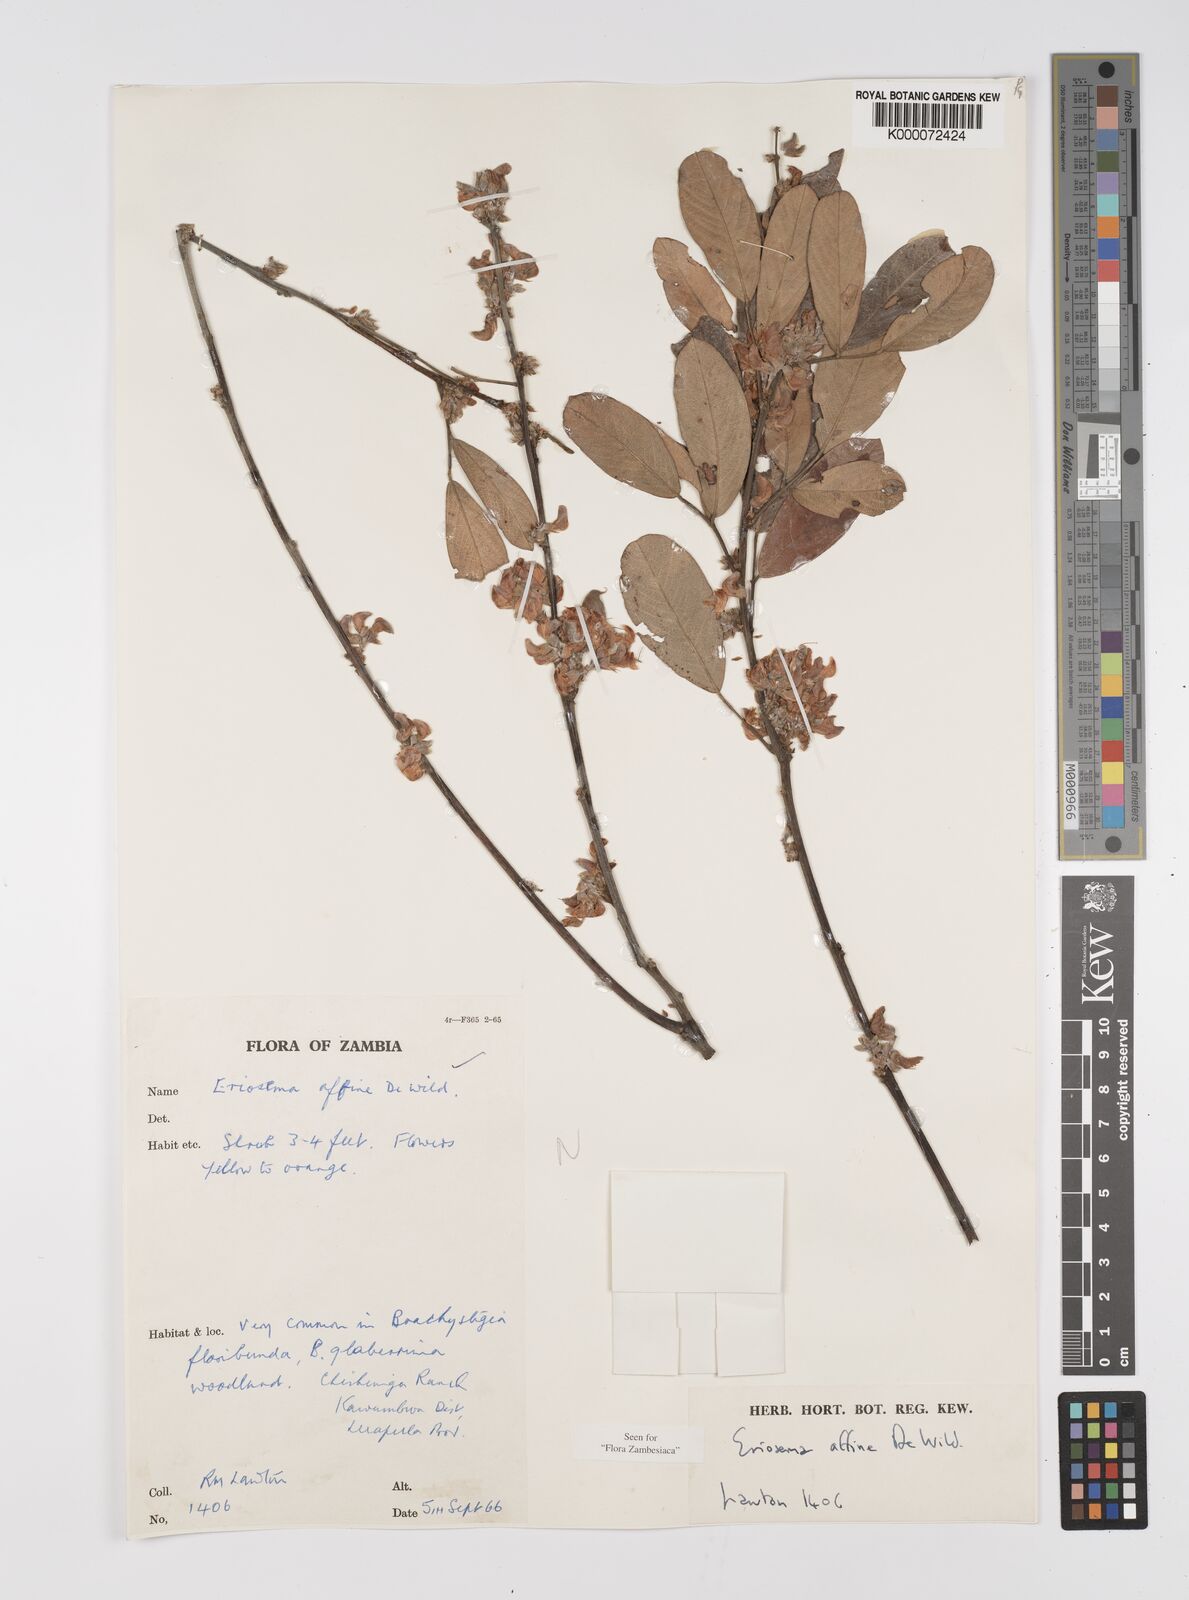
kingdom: Plantae
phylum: Tracheophyta
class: Magnoliopsida
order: Fabales
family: Fabaceae
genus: Eriosema
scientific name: Eriosema affine
